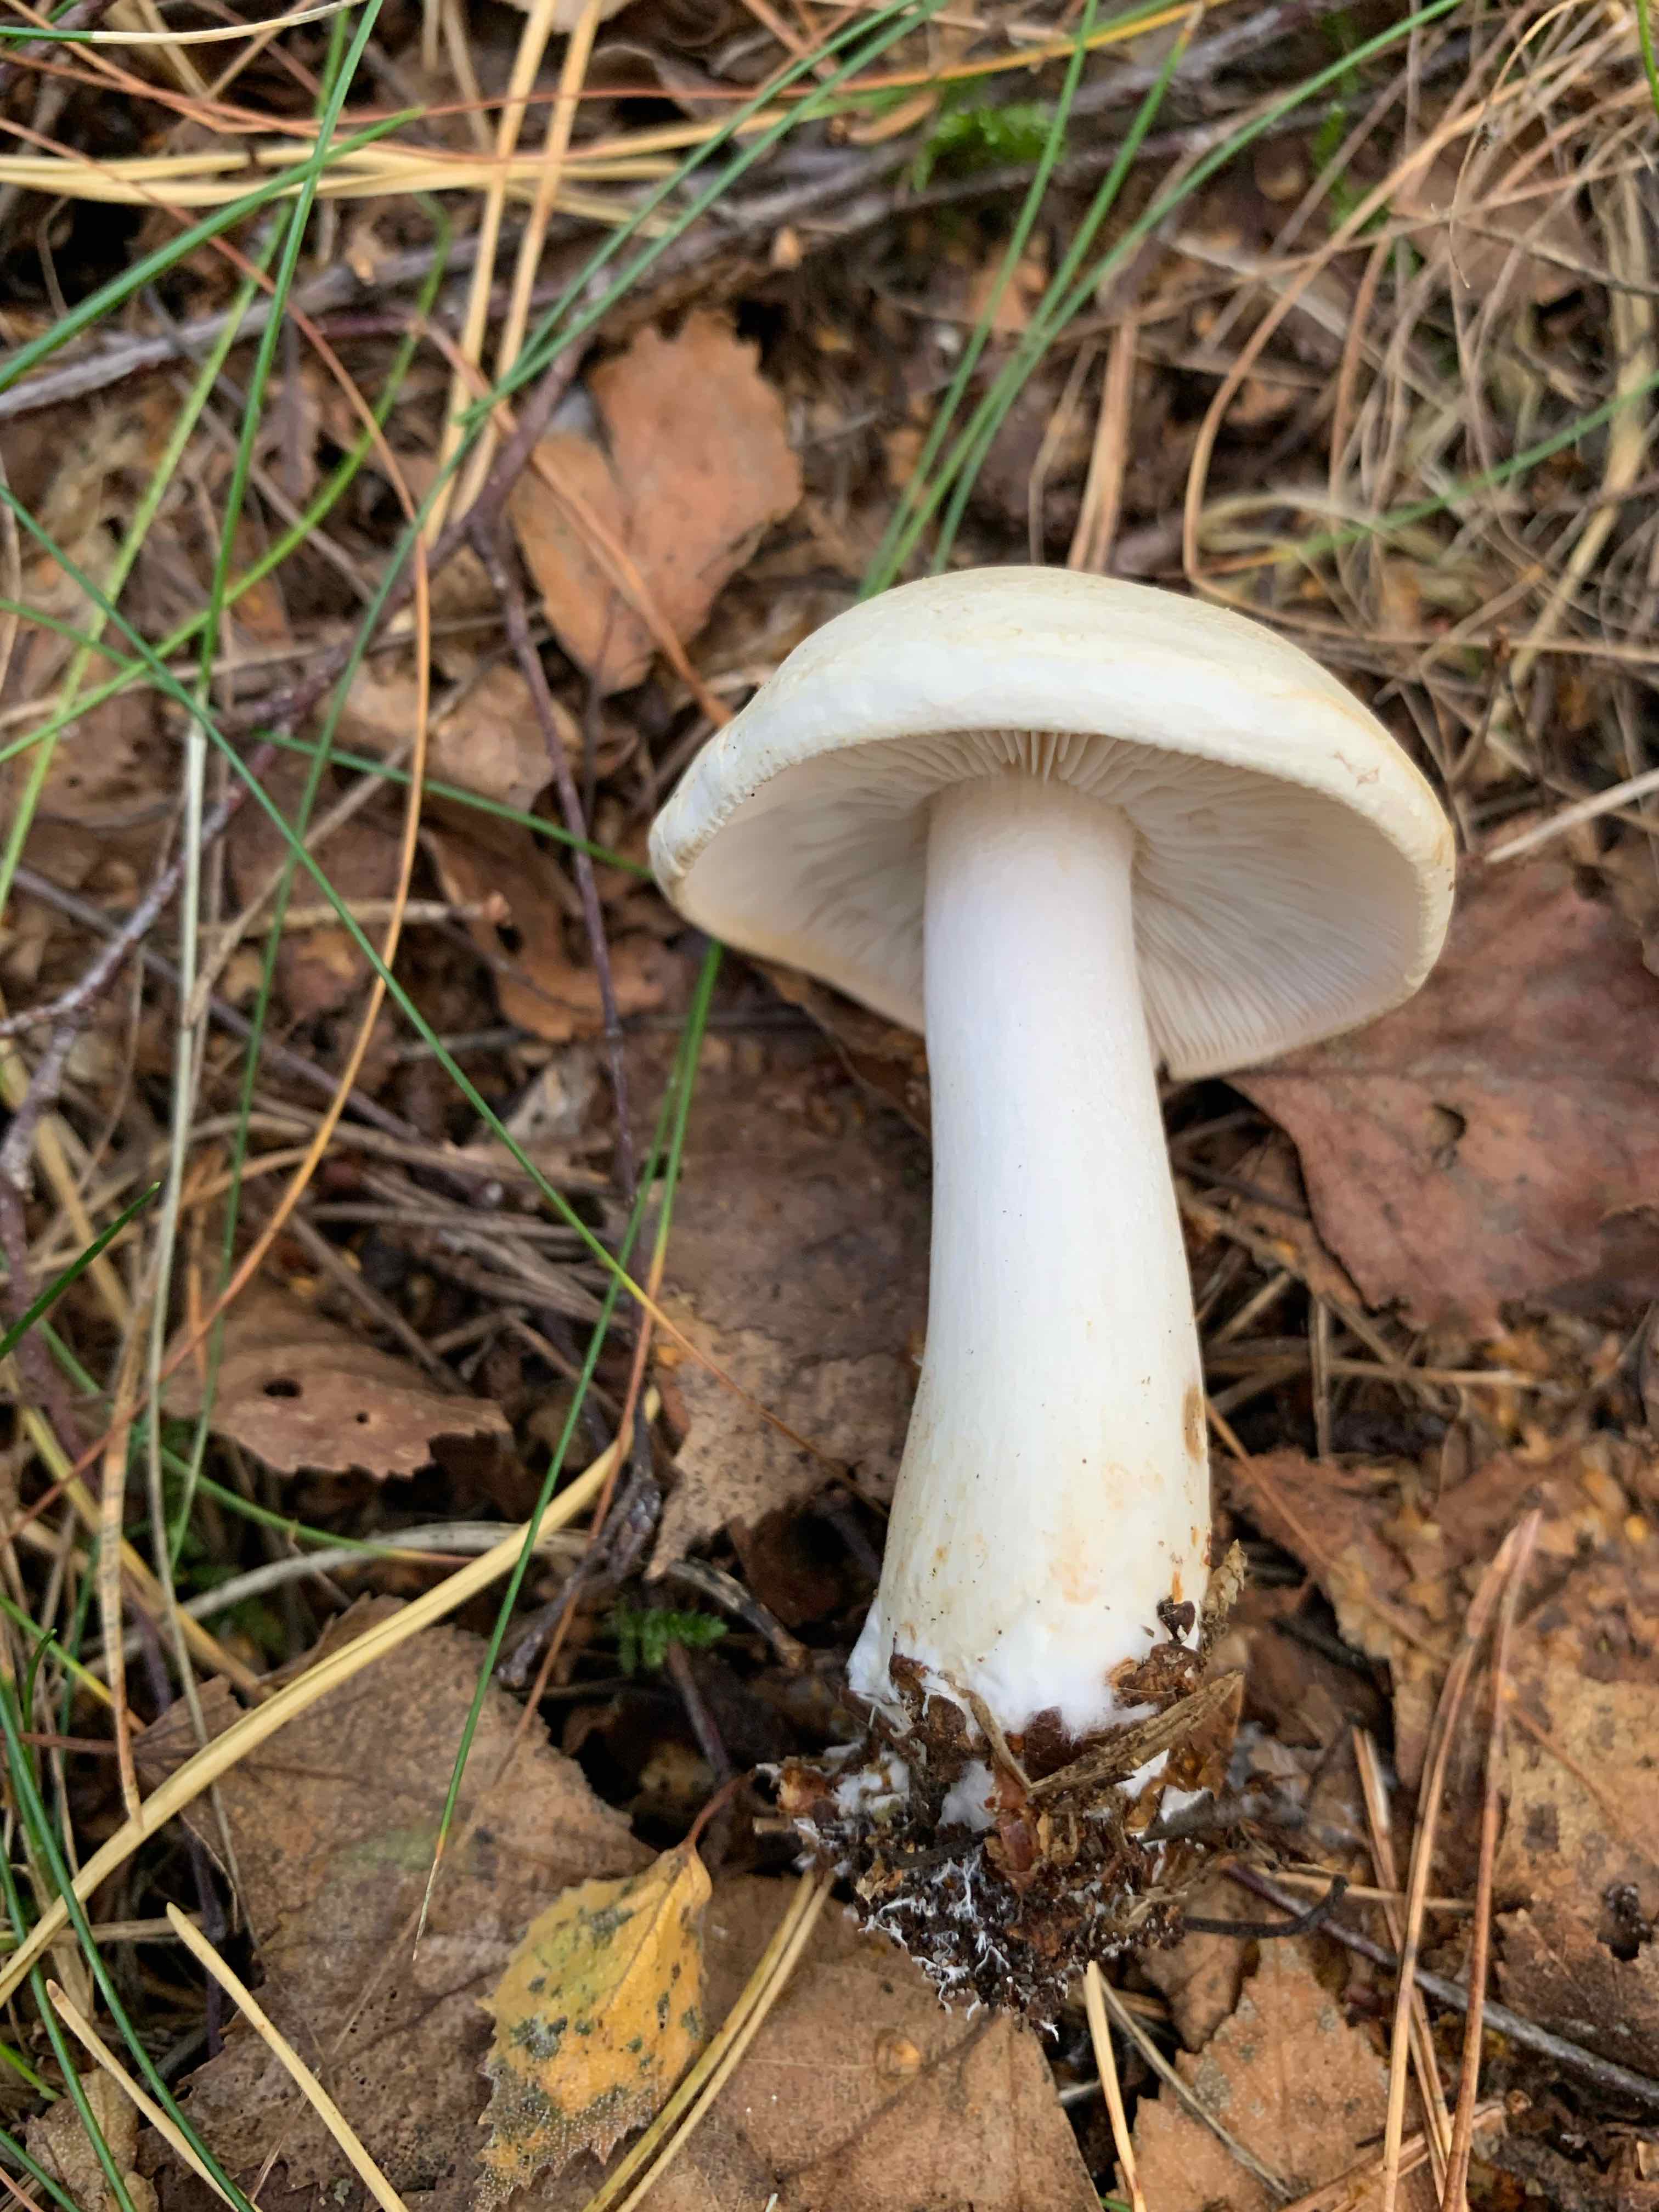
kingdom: Fungi
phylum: Basidiomycota
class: Agaricomycetes
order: Agaricales
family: Tricholomataceae
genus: Tricholoma
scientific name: Tricholoma stiparophyllum
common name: hvid ridderhat
